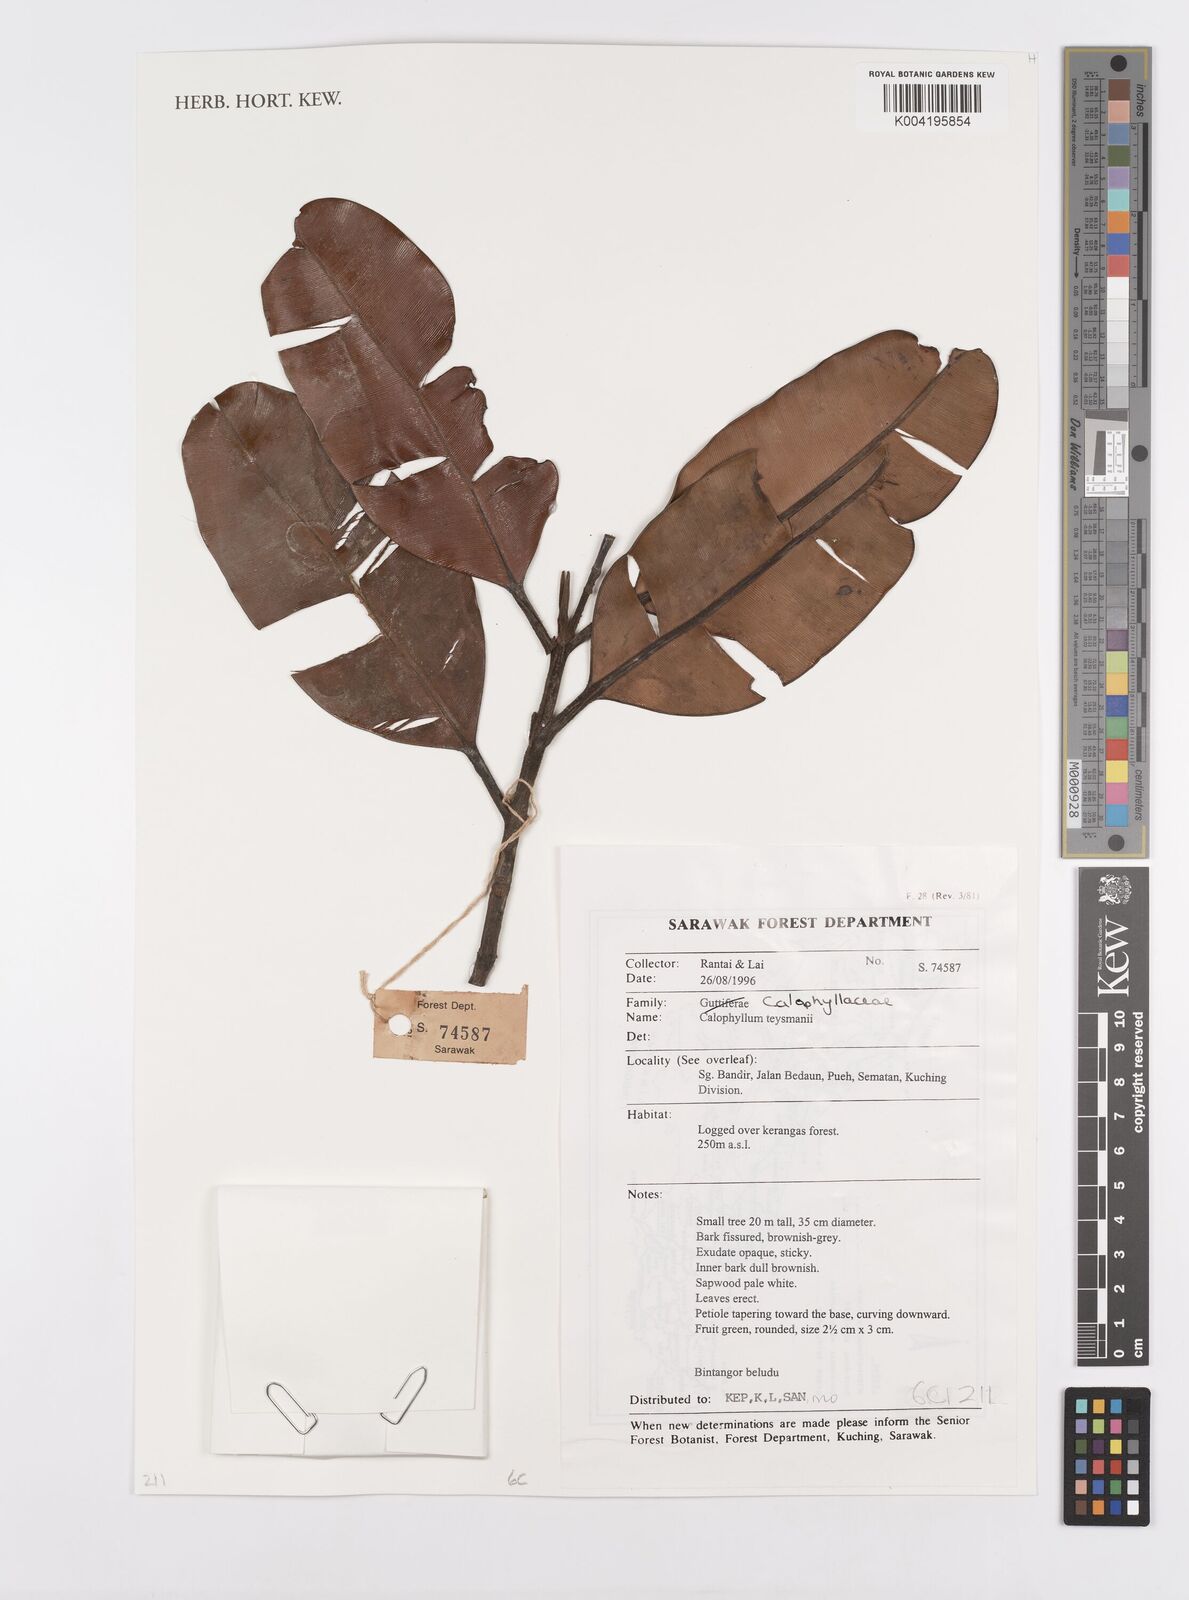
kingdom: Plantae
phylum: Tracheophyta
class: Magnoliopsida
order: Malpighiales
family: Calophyllaceae
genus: Calophyllum
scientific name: Calophyllum teysmannii
